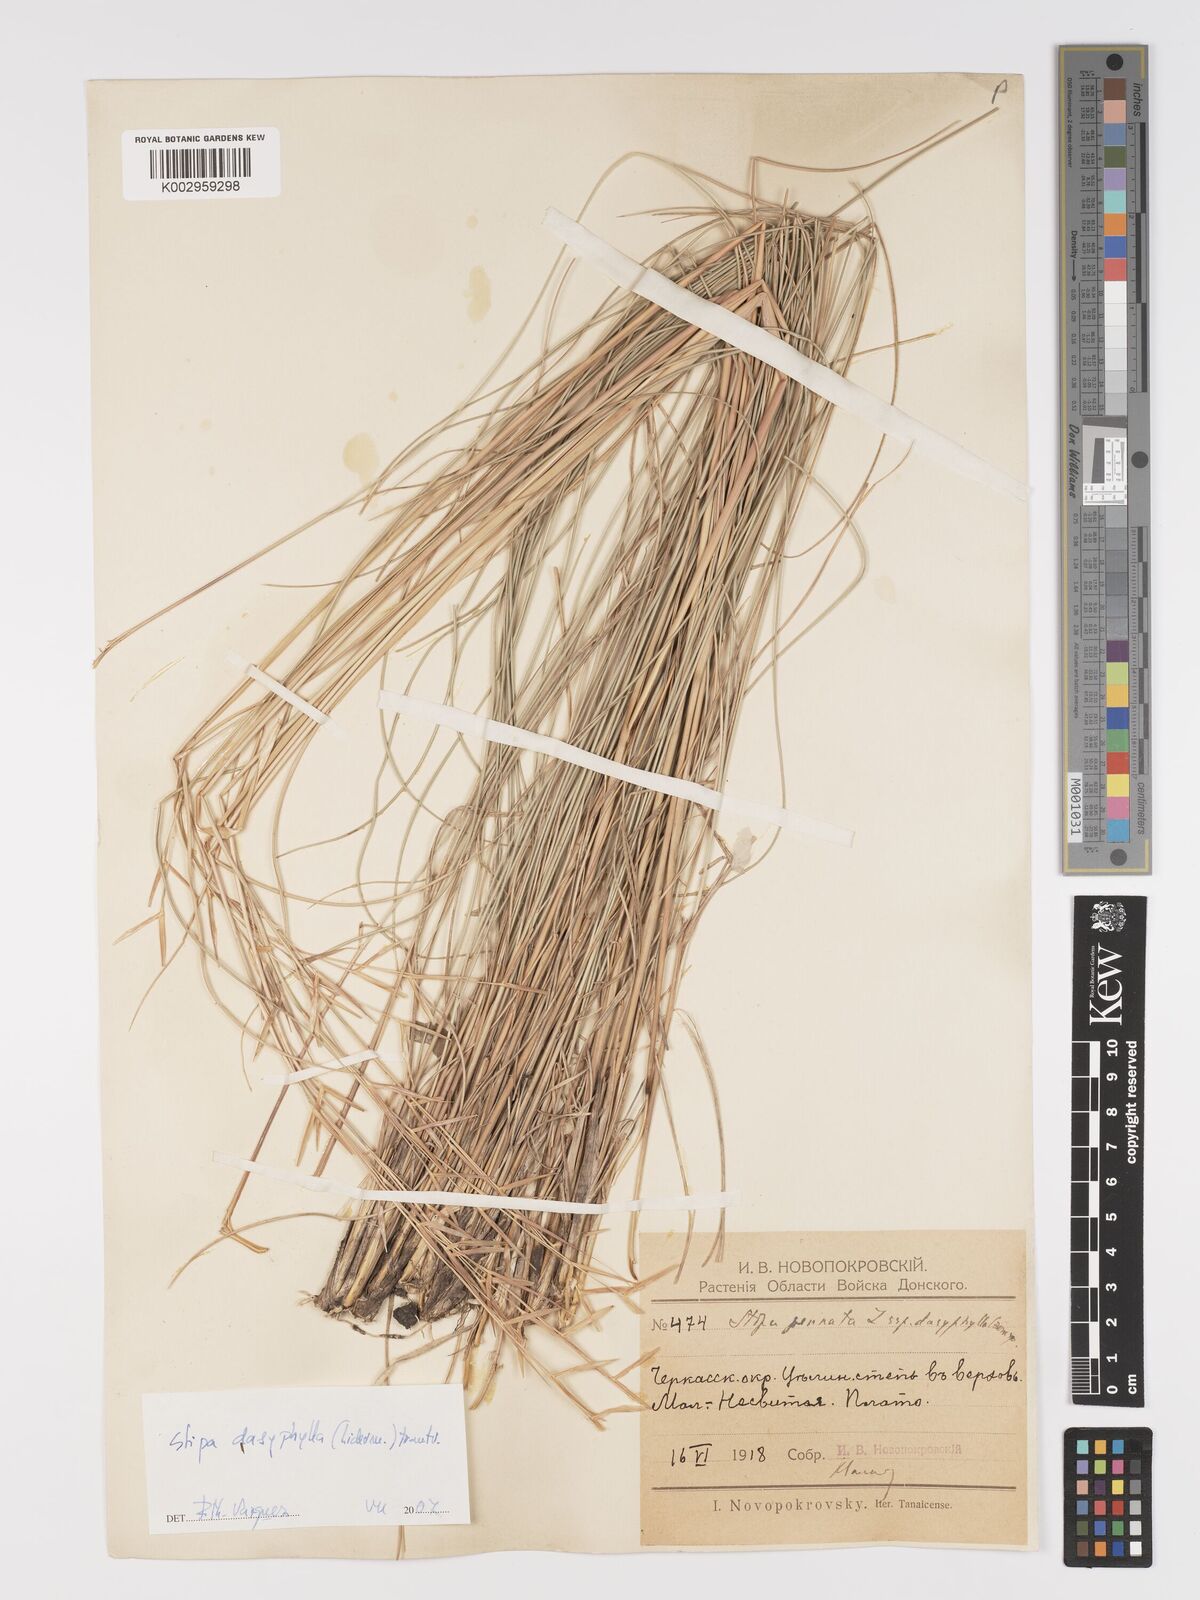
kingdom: Plantae
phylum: Tracheophyta
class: Liliopsida
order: Poales
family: Poaceae
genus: Stipa
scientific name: Stipa dasyphylla
